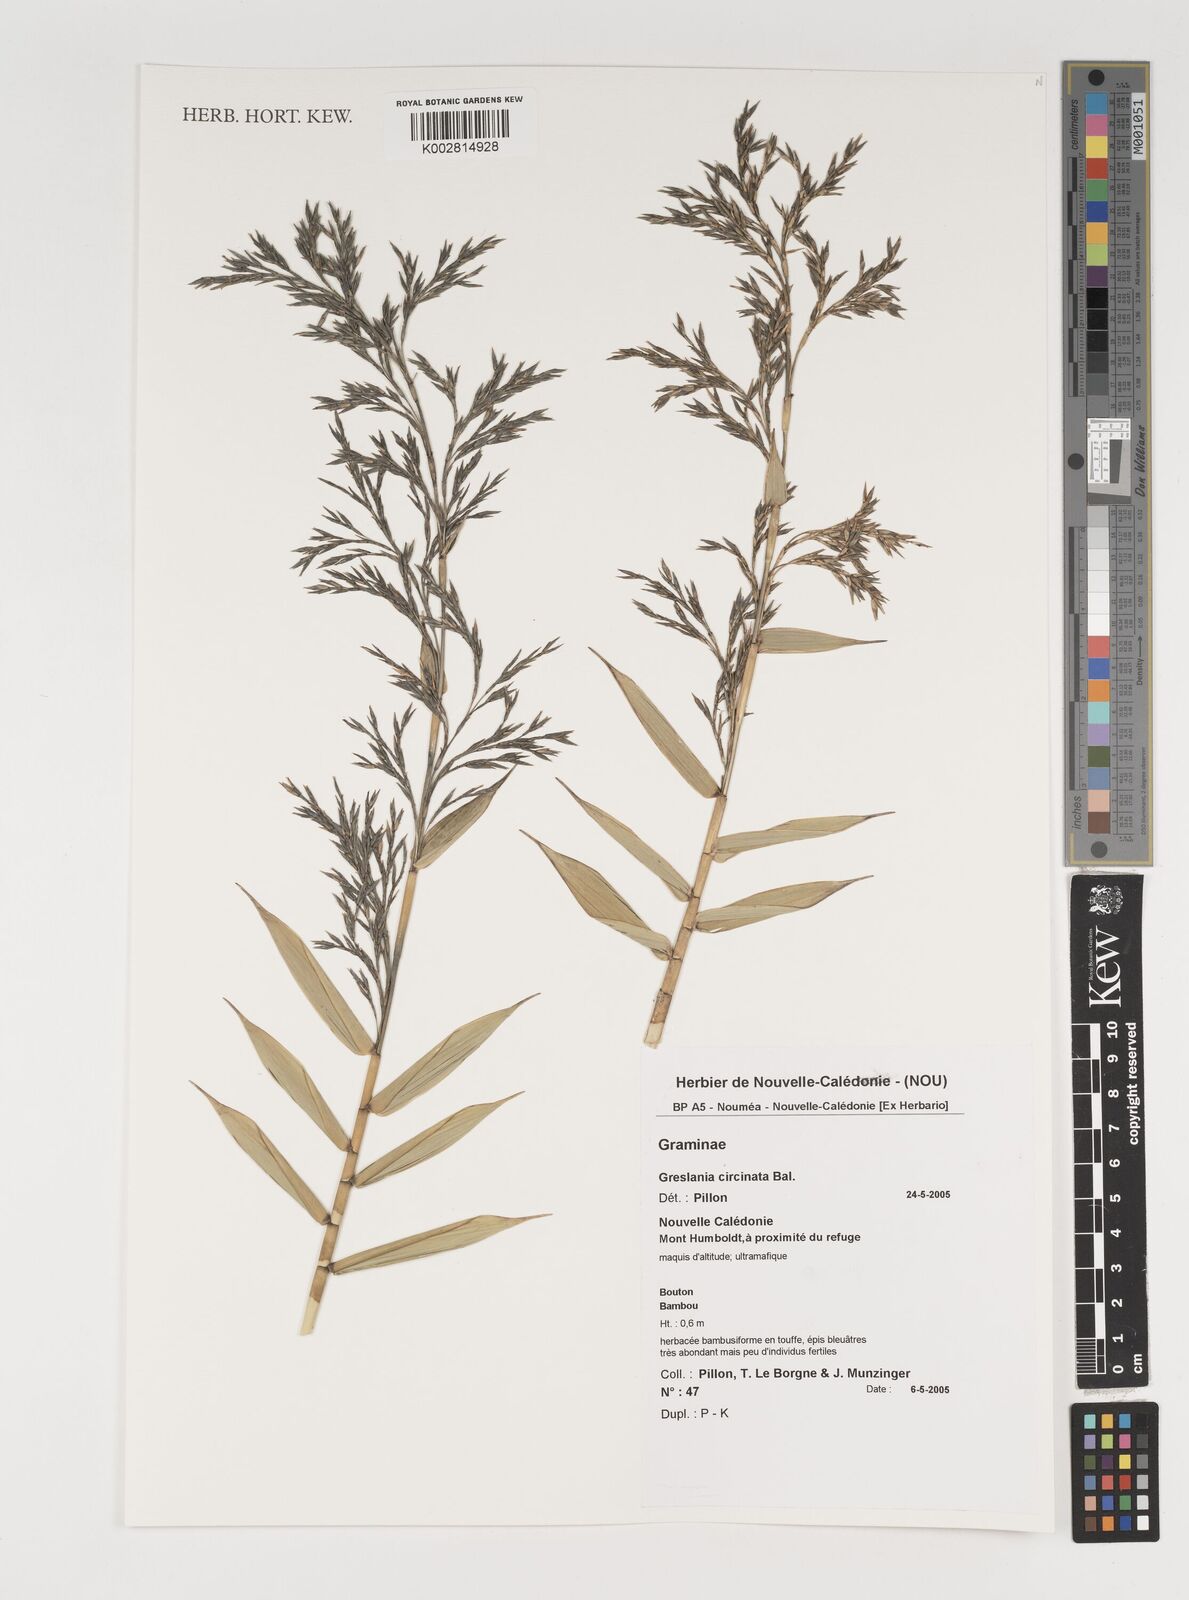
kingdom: Plantae
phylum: Tracheophyta
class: Liliopsida
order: Poales
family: Poaceae
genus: Greslania
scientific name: Greslania circinata
